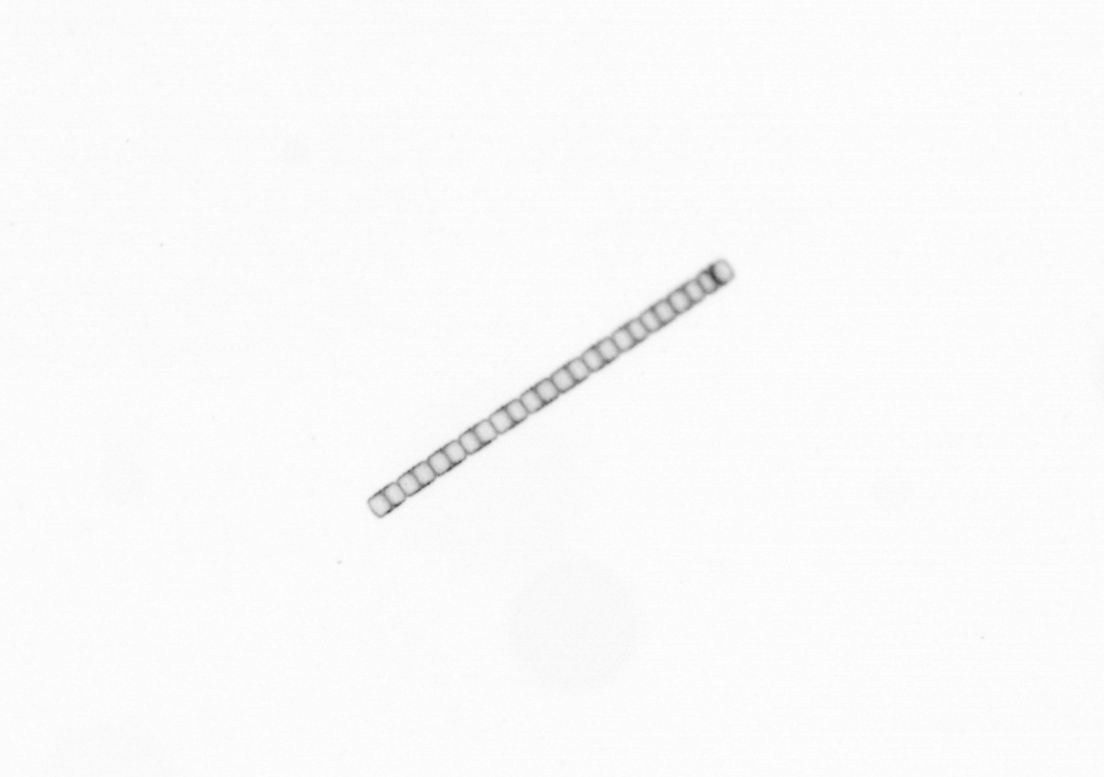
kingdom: Chromista
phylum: Ochrophyta
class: Bacillariophyceae
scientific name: Bacillariophyceae
